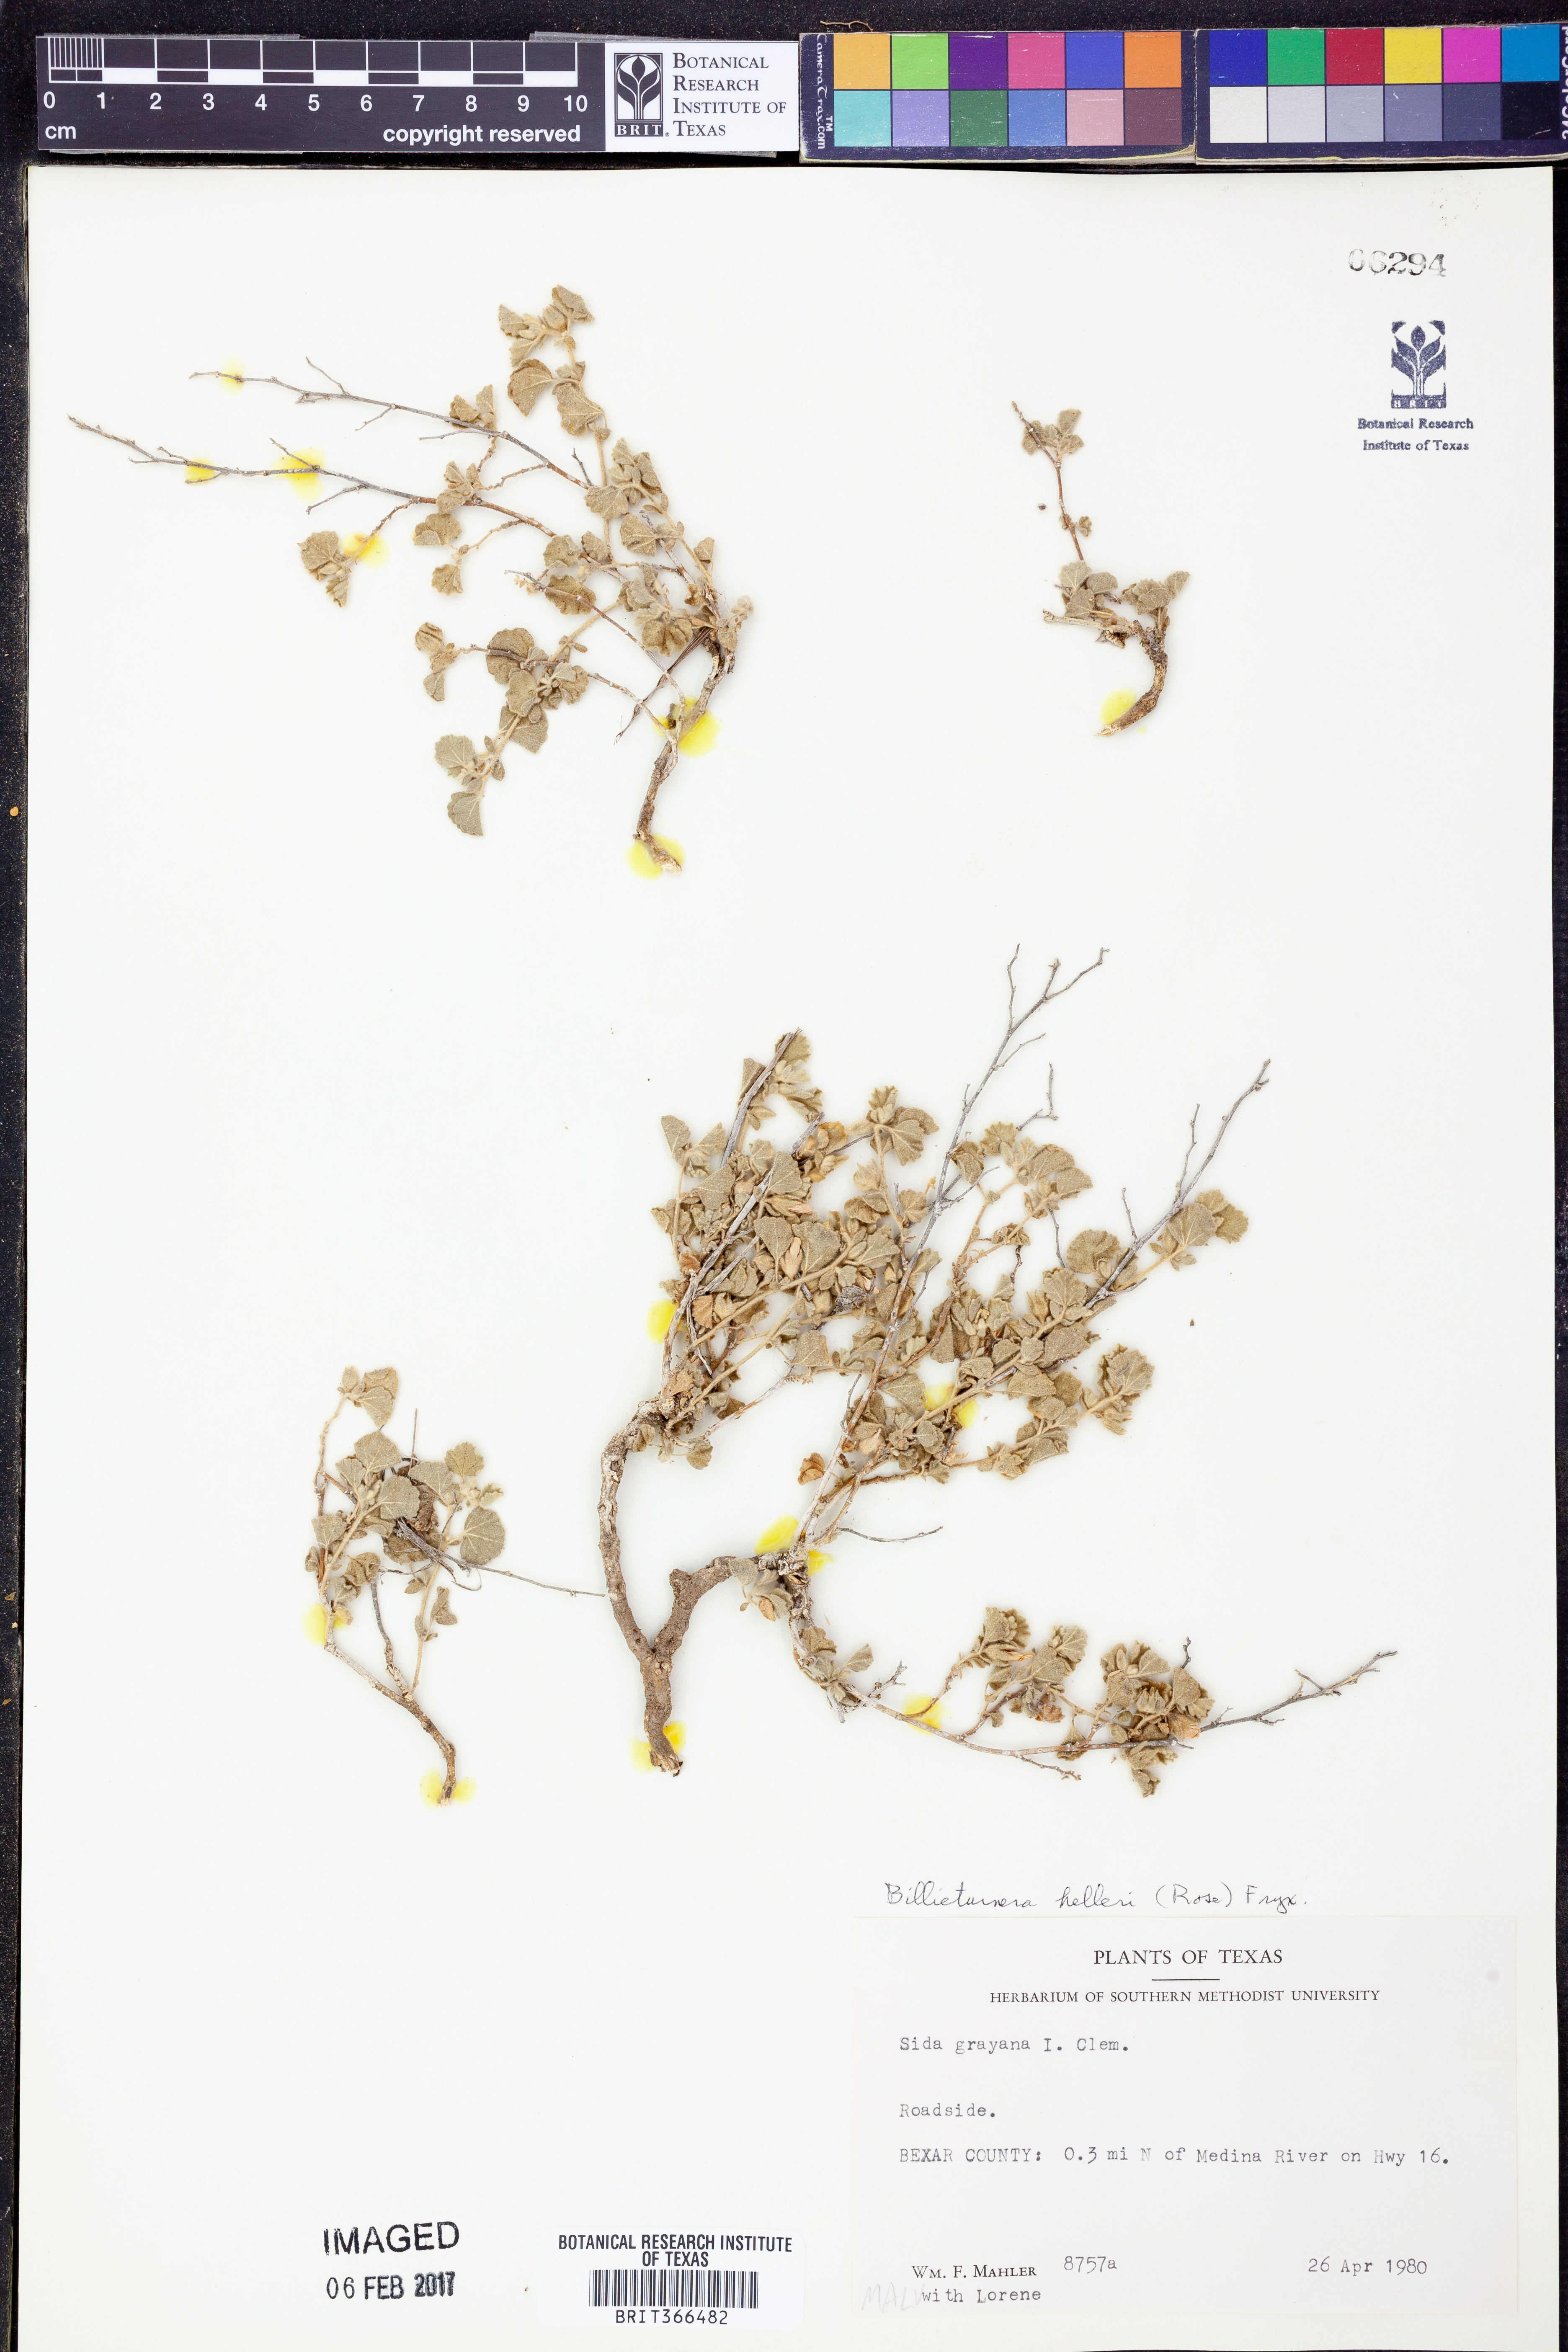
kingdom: Plantae
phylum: Tracheophyta
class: Magnoliopsida
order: Malvales
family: Malvaceae
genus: Billieturnera
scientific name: Billieturnera helleri
